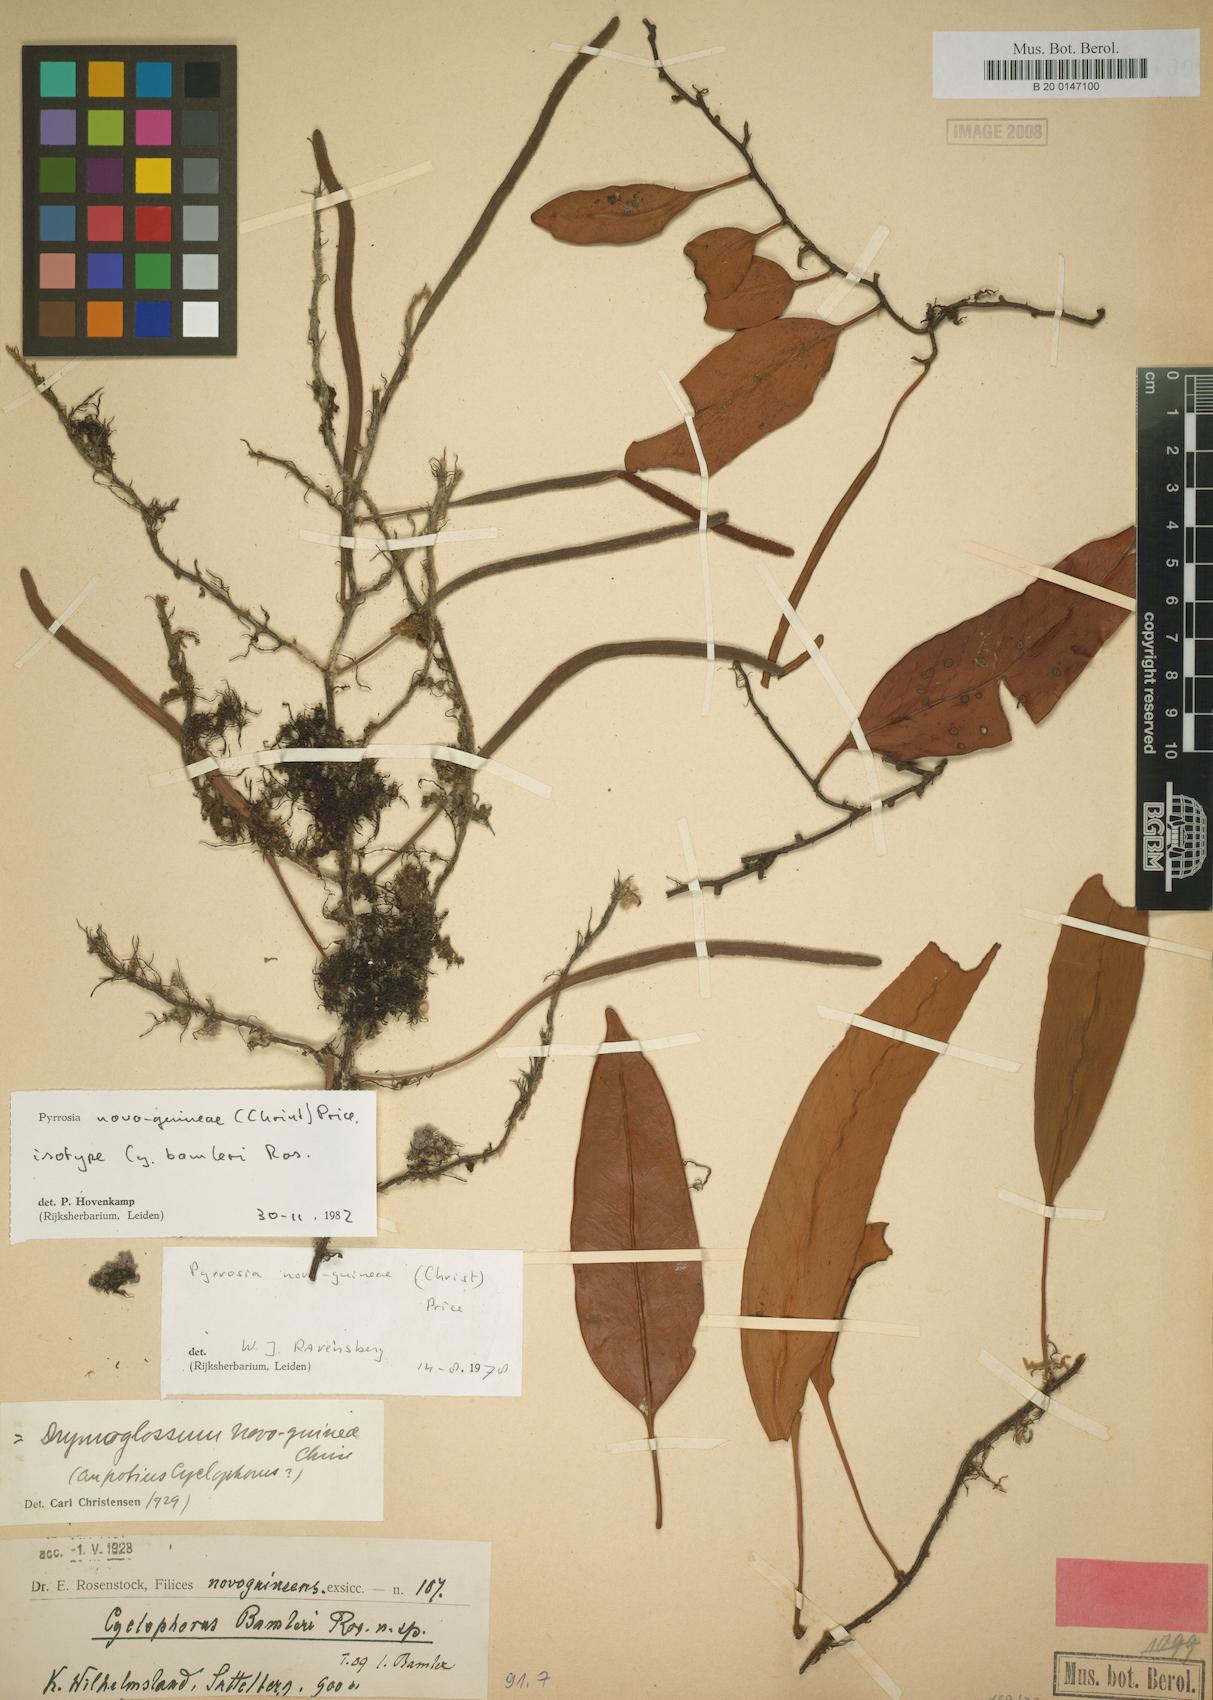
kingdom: Plantae
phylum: Tracheophyta
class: Polypodiopsida
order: Polypodiales
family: Polypodiaceae
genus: Pyrrosia
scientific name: Pyrrosia novoguineae
